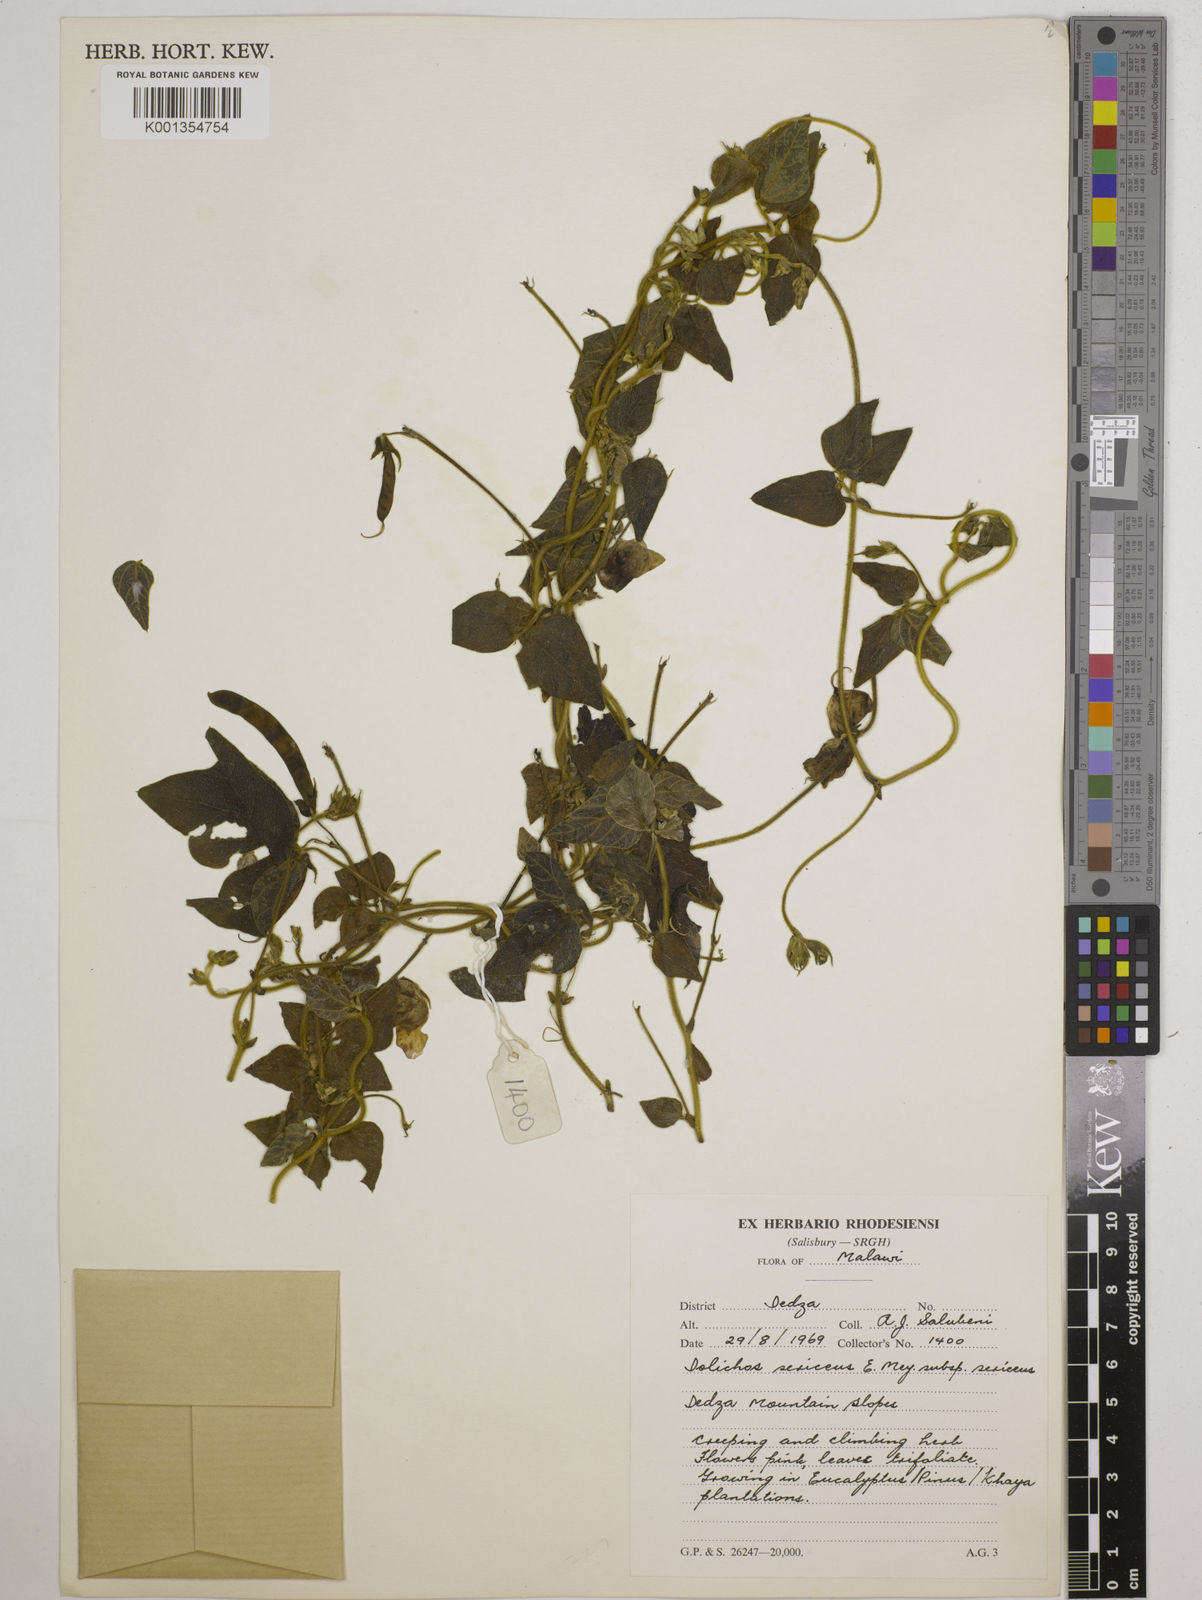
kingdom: Plantae
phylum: Tracheophyta
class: Magnoliopsida
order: Fabales
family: Fabaceae
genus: Dolichos
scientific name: Dolichos
